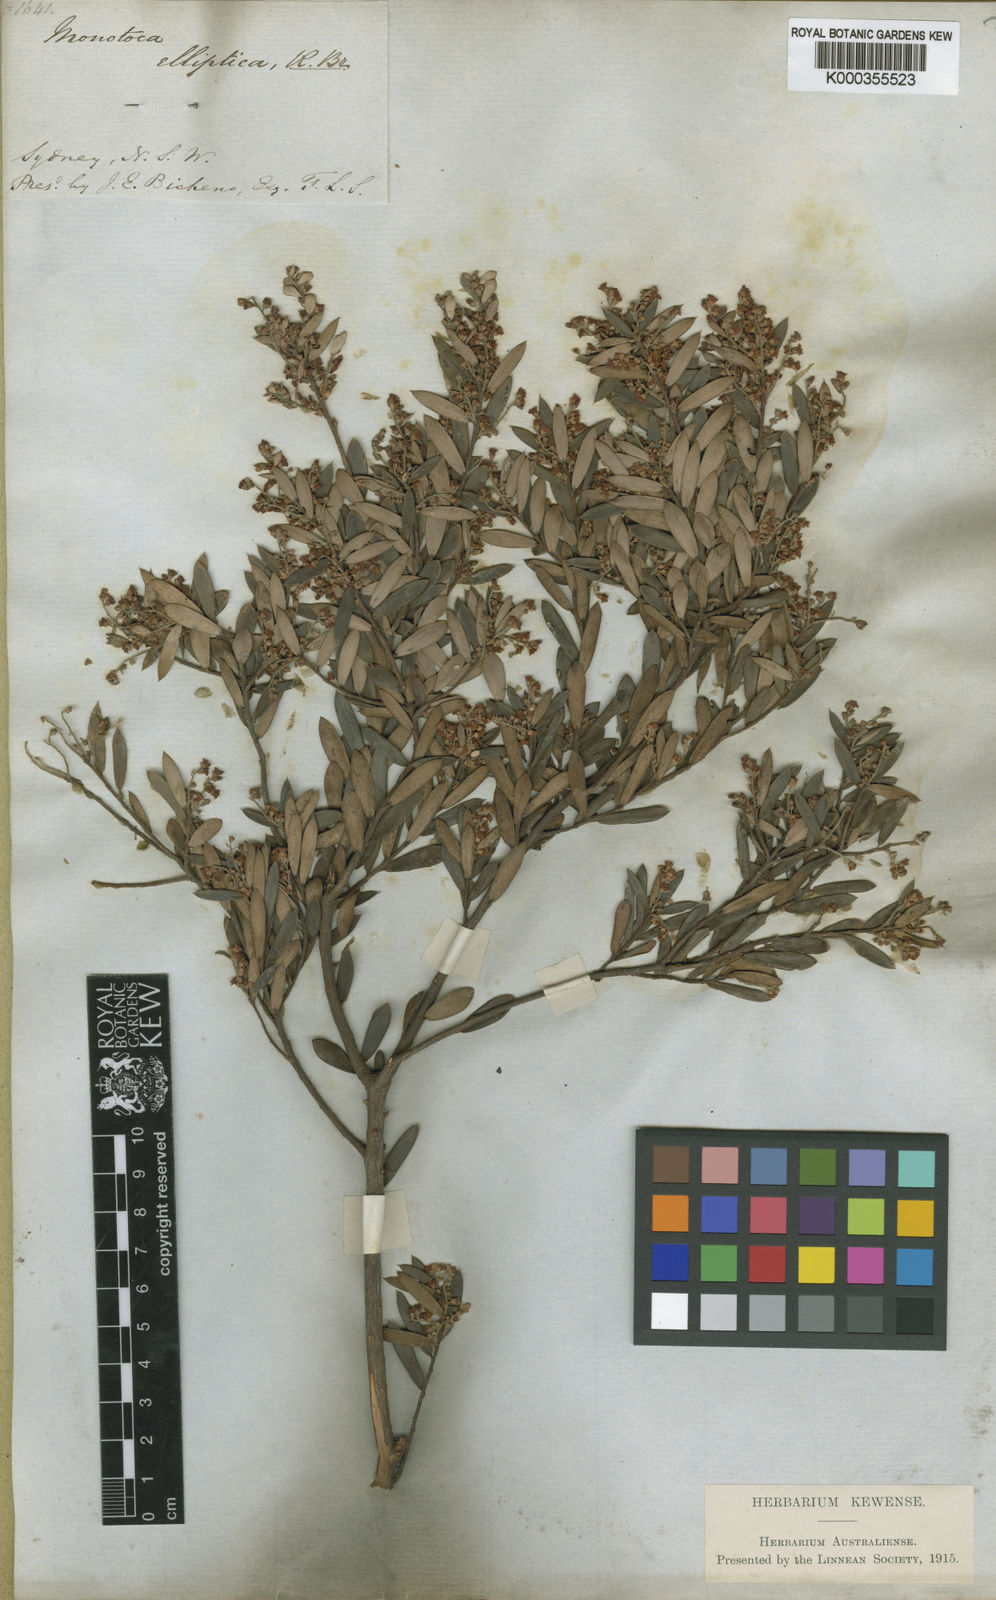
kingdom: Plantae
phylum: Tracheophyta
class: Magnoliopsida
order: Ericales
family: Ericaceae
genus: Monotoca
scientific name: Monotoca elliptica
